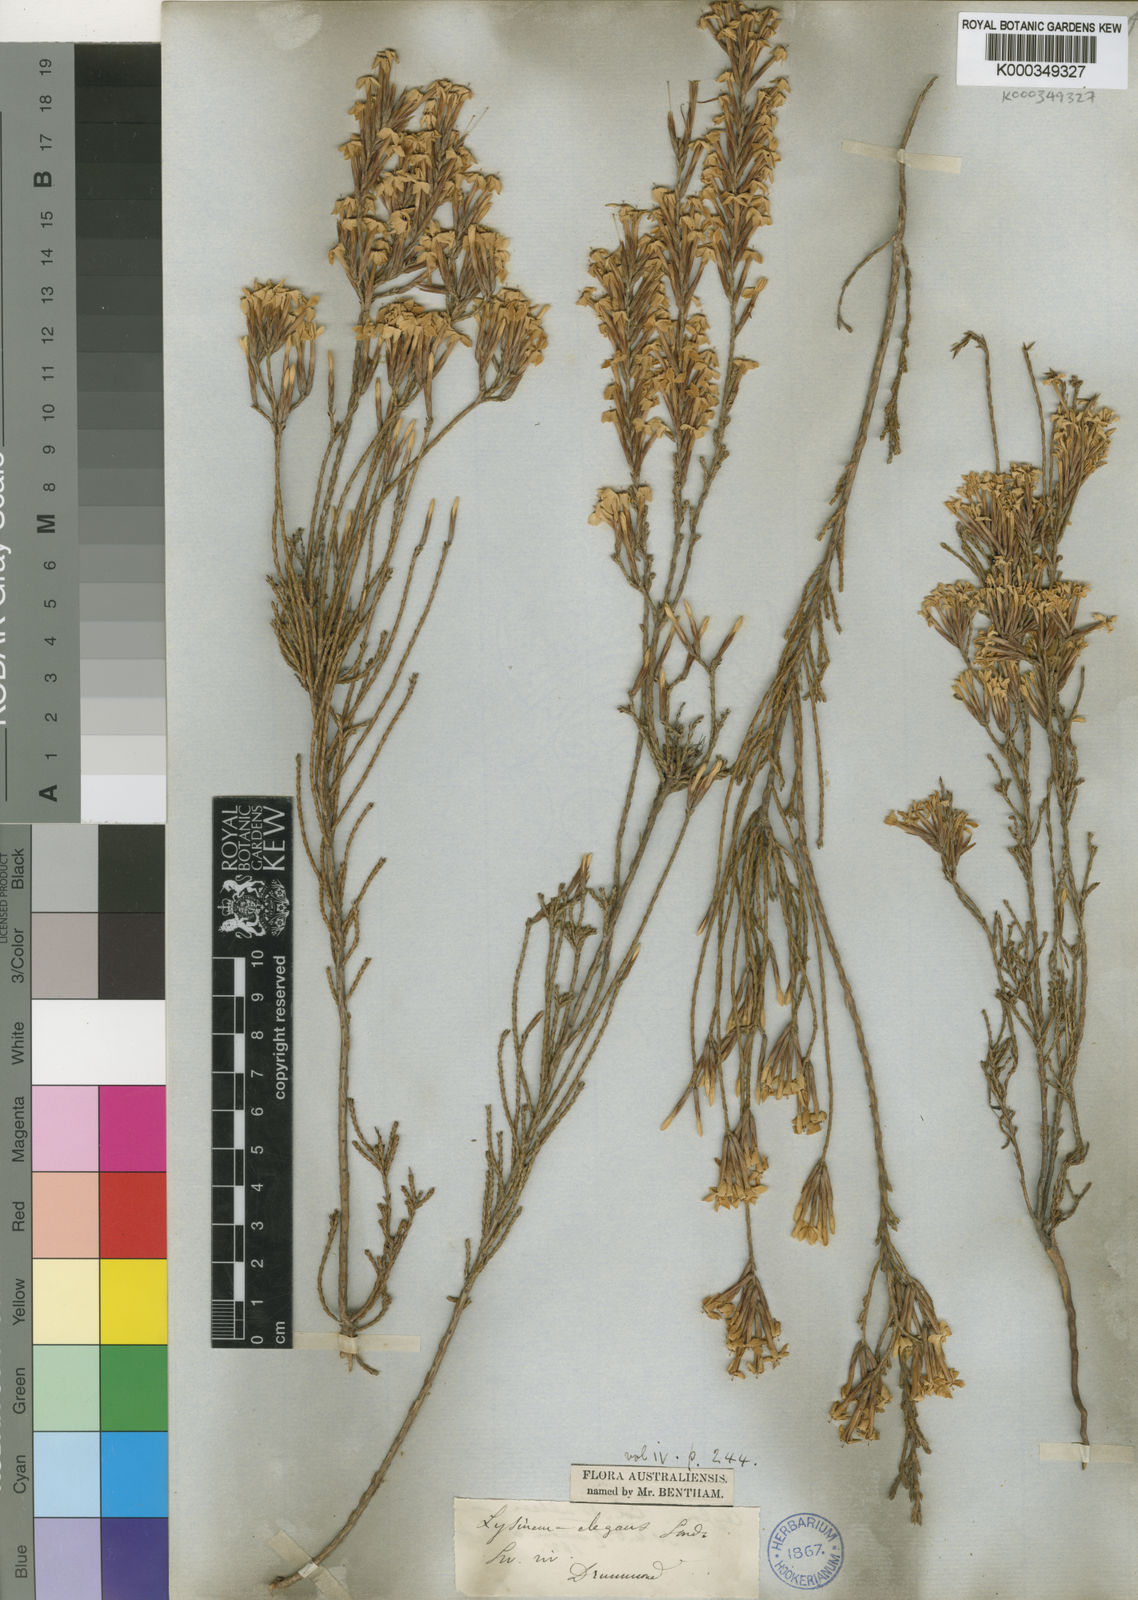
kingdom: Plantae
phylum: Tracheophyta
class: Magnoliopsida
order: Ericales
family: Ericaceae
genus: Lysinema
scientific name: Lysinema elegans
